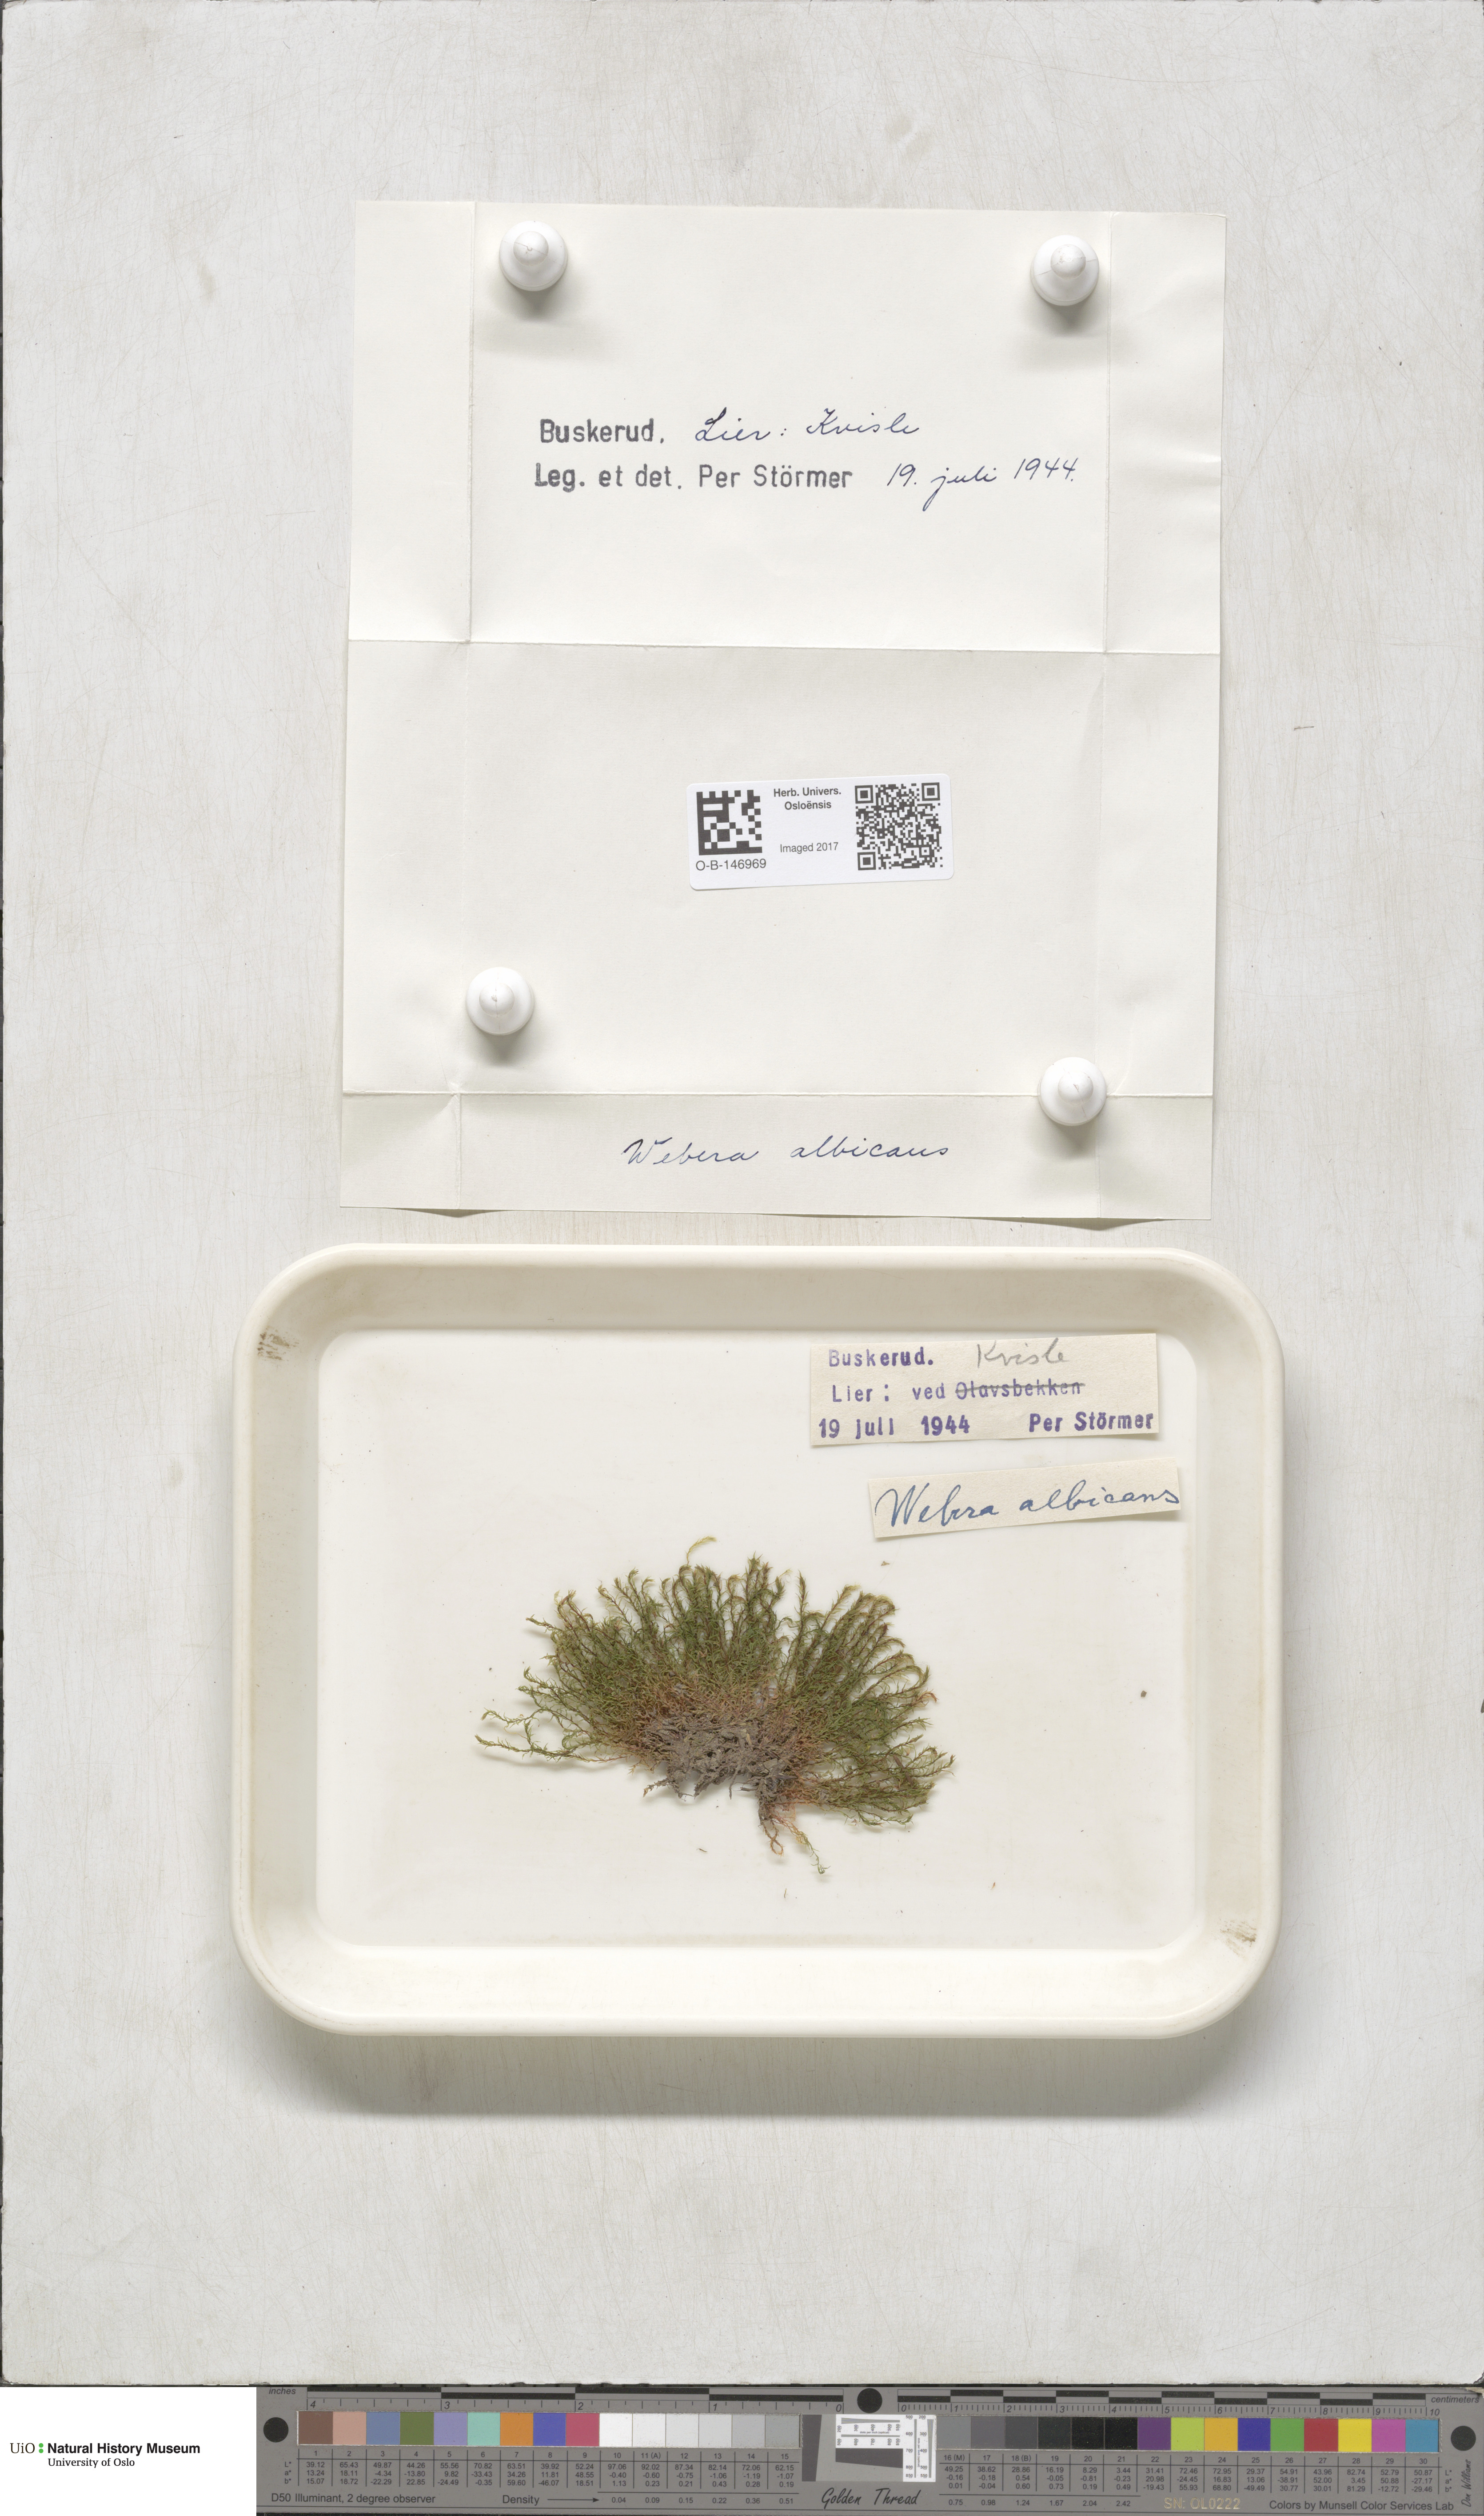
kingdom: Plantae
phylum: Bryophyta
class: Bryopsida
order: Bryales
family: Mniaceae
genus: Pohlia
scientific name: Pohlia wahlenbergii
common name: Wahlenberg's nodding moss
